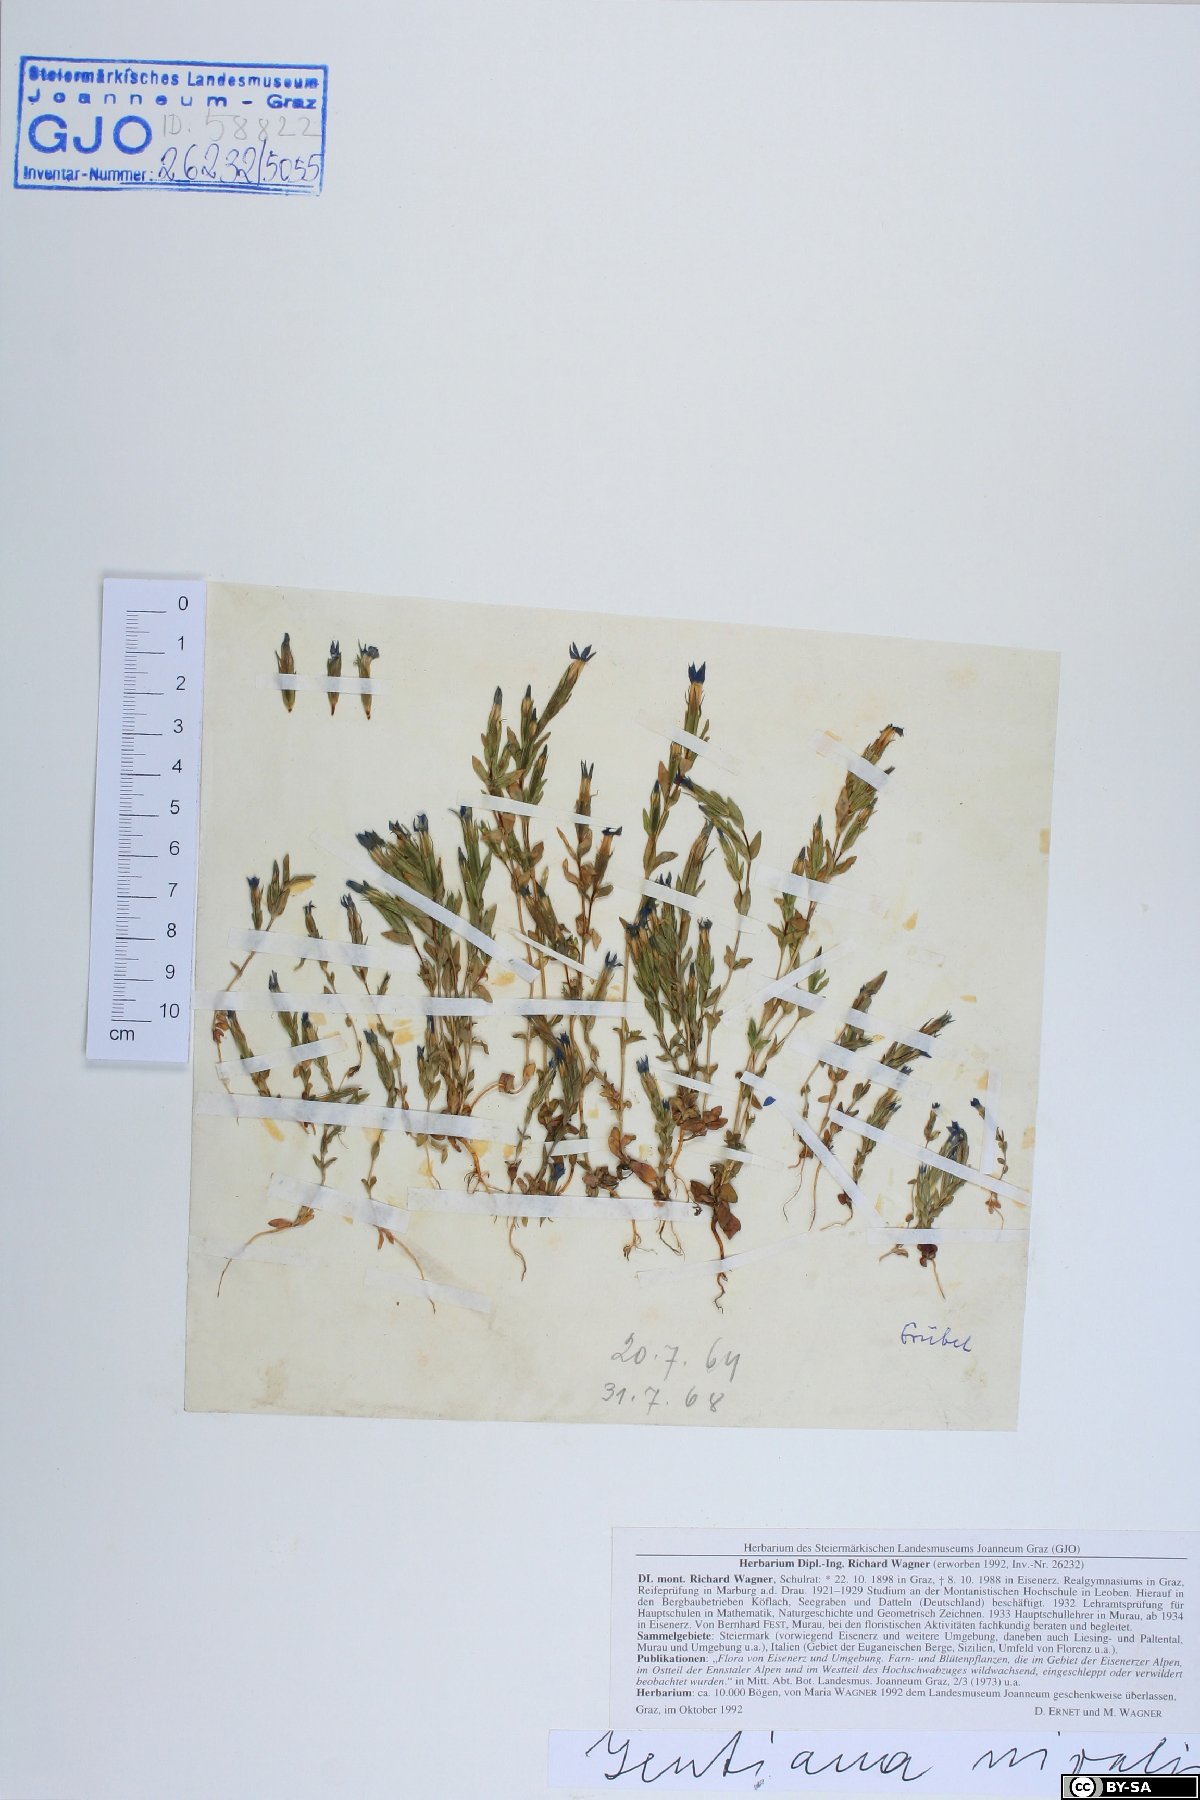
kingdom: Plantae
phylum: Tracheophyta
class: Magnoliopsida
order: Gentianales
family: Gentianaceae
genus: Gentiana
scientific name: Gentiana nivalis
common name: Alpine gentian
